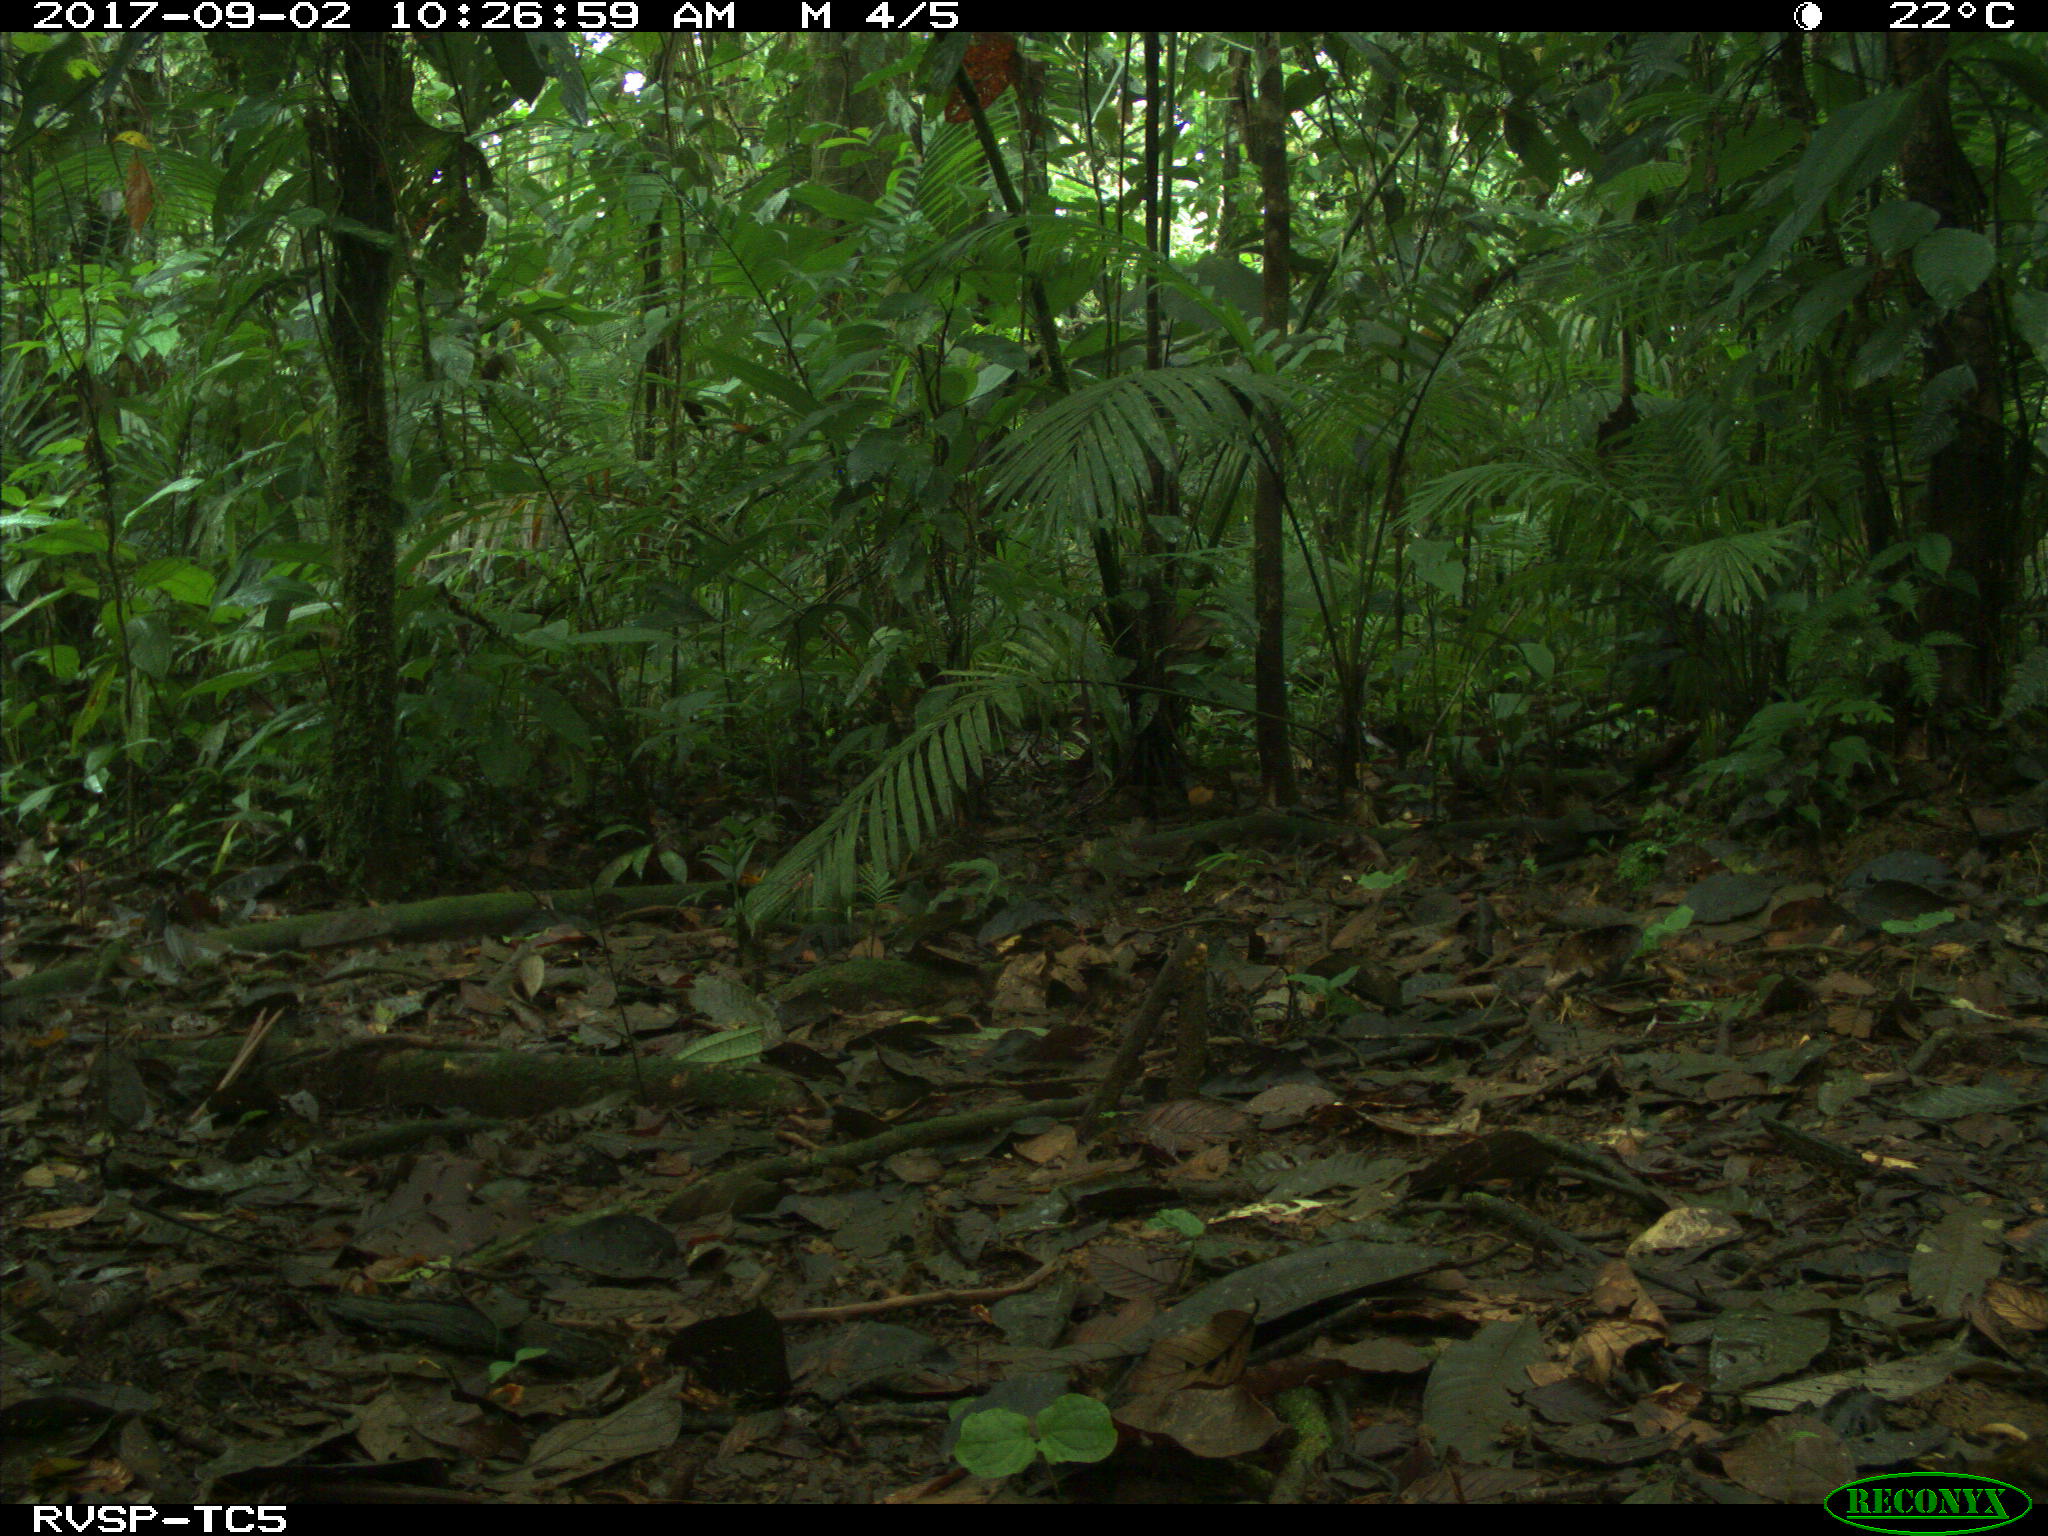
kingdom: Animalia
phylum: Chordata
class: Mammalia
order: Artiodactyla
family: Tayassuidae
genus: Tayassu
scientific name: Tayassu pecari
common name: White-lipped peccary
